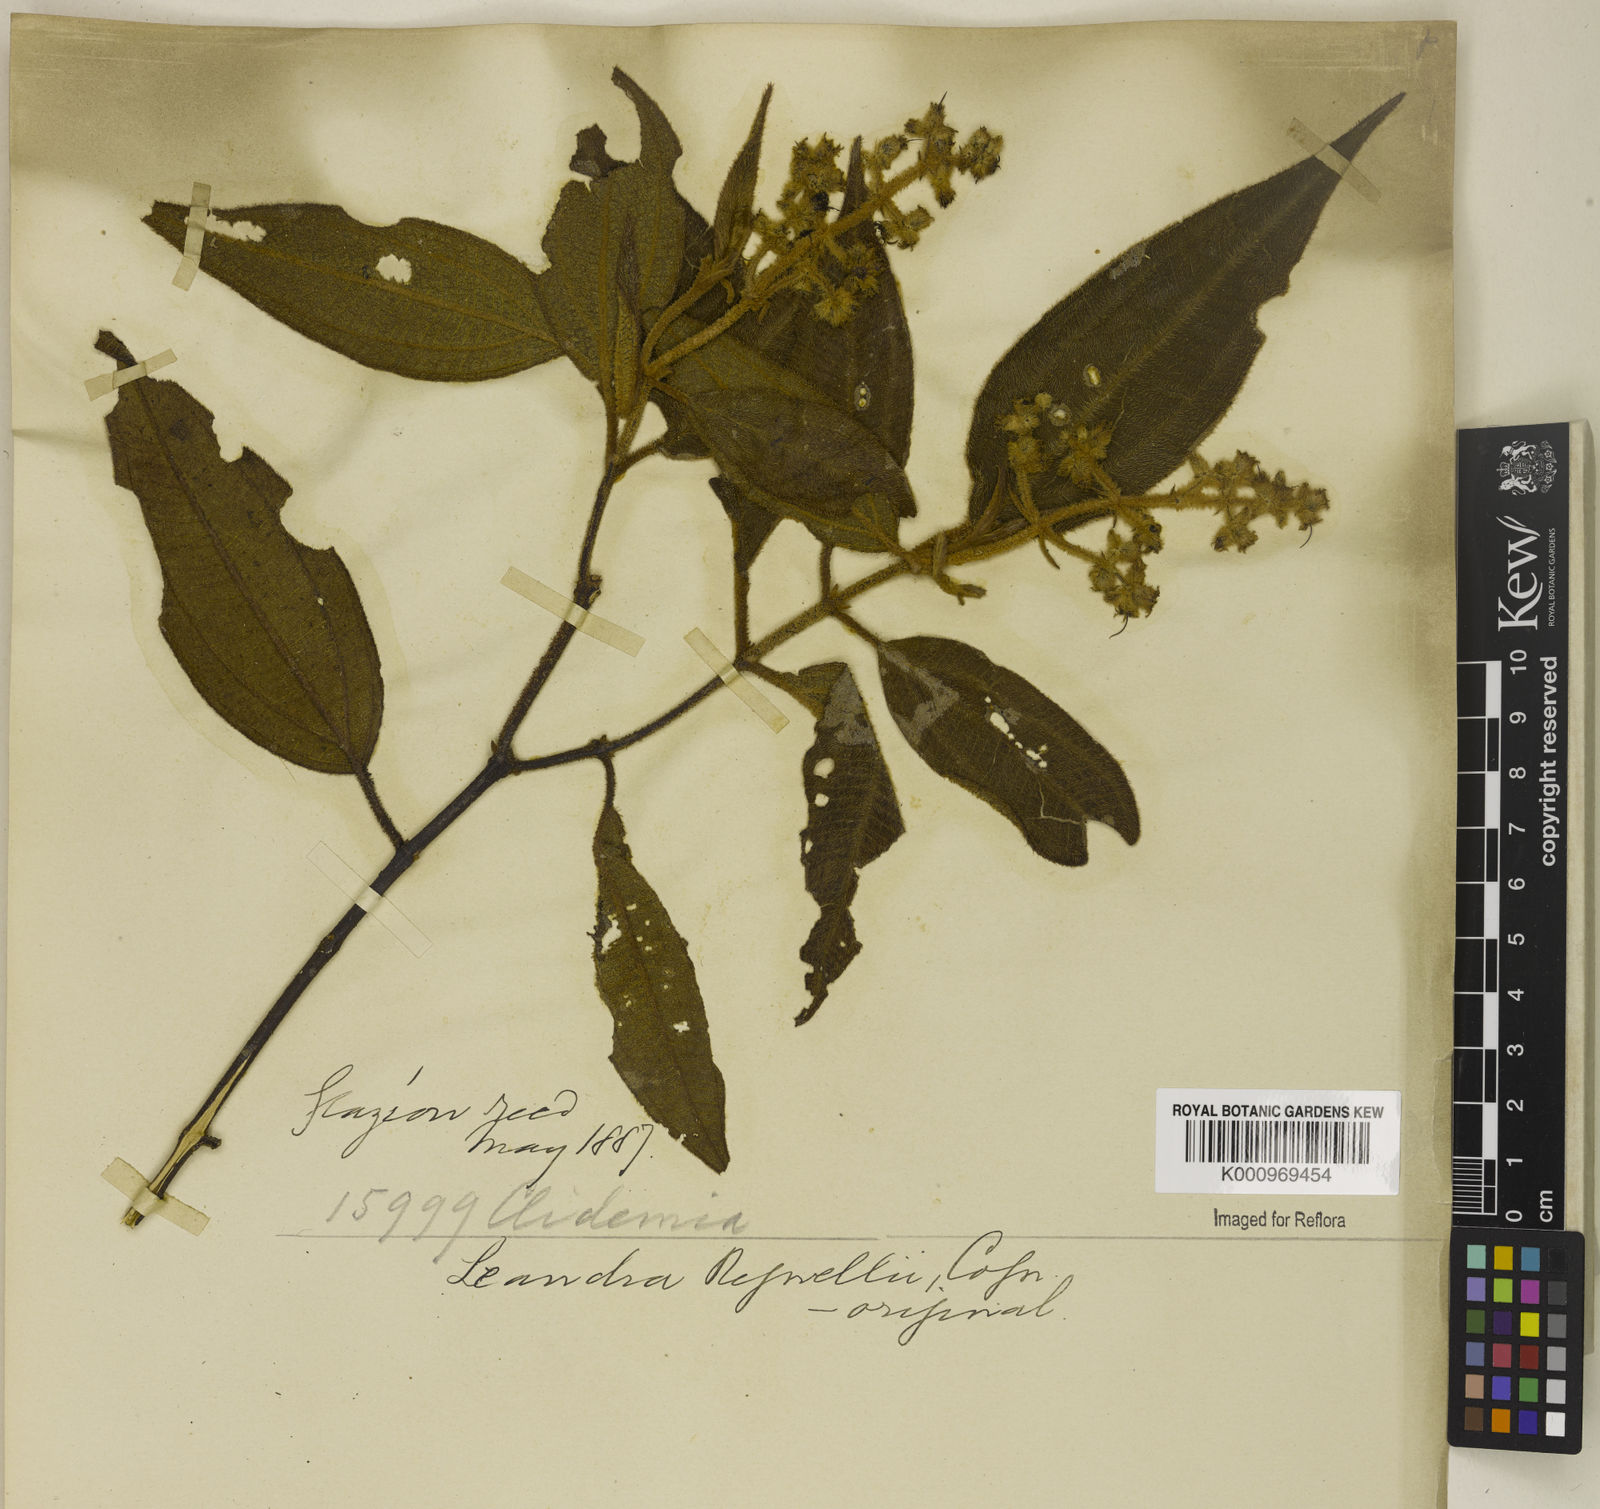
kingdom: Plantae
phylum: Tracheophyta
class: Magnoliopsida
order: Myrtales
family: Melastomataceae
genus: Miconia
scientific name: Miconia alterninervia
